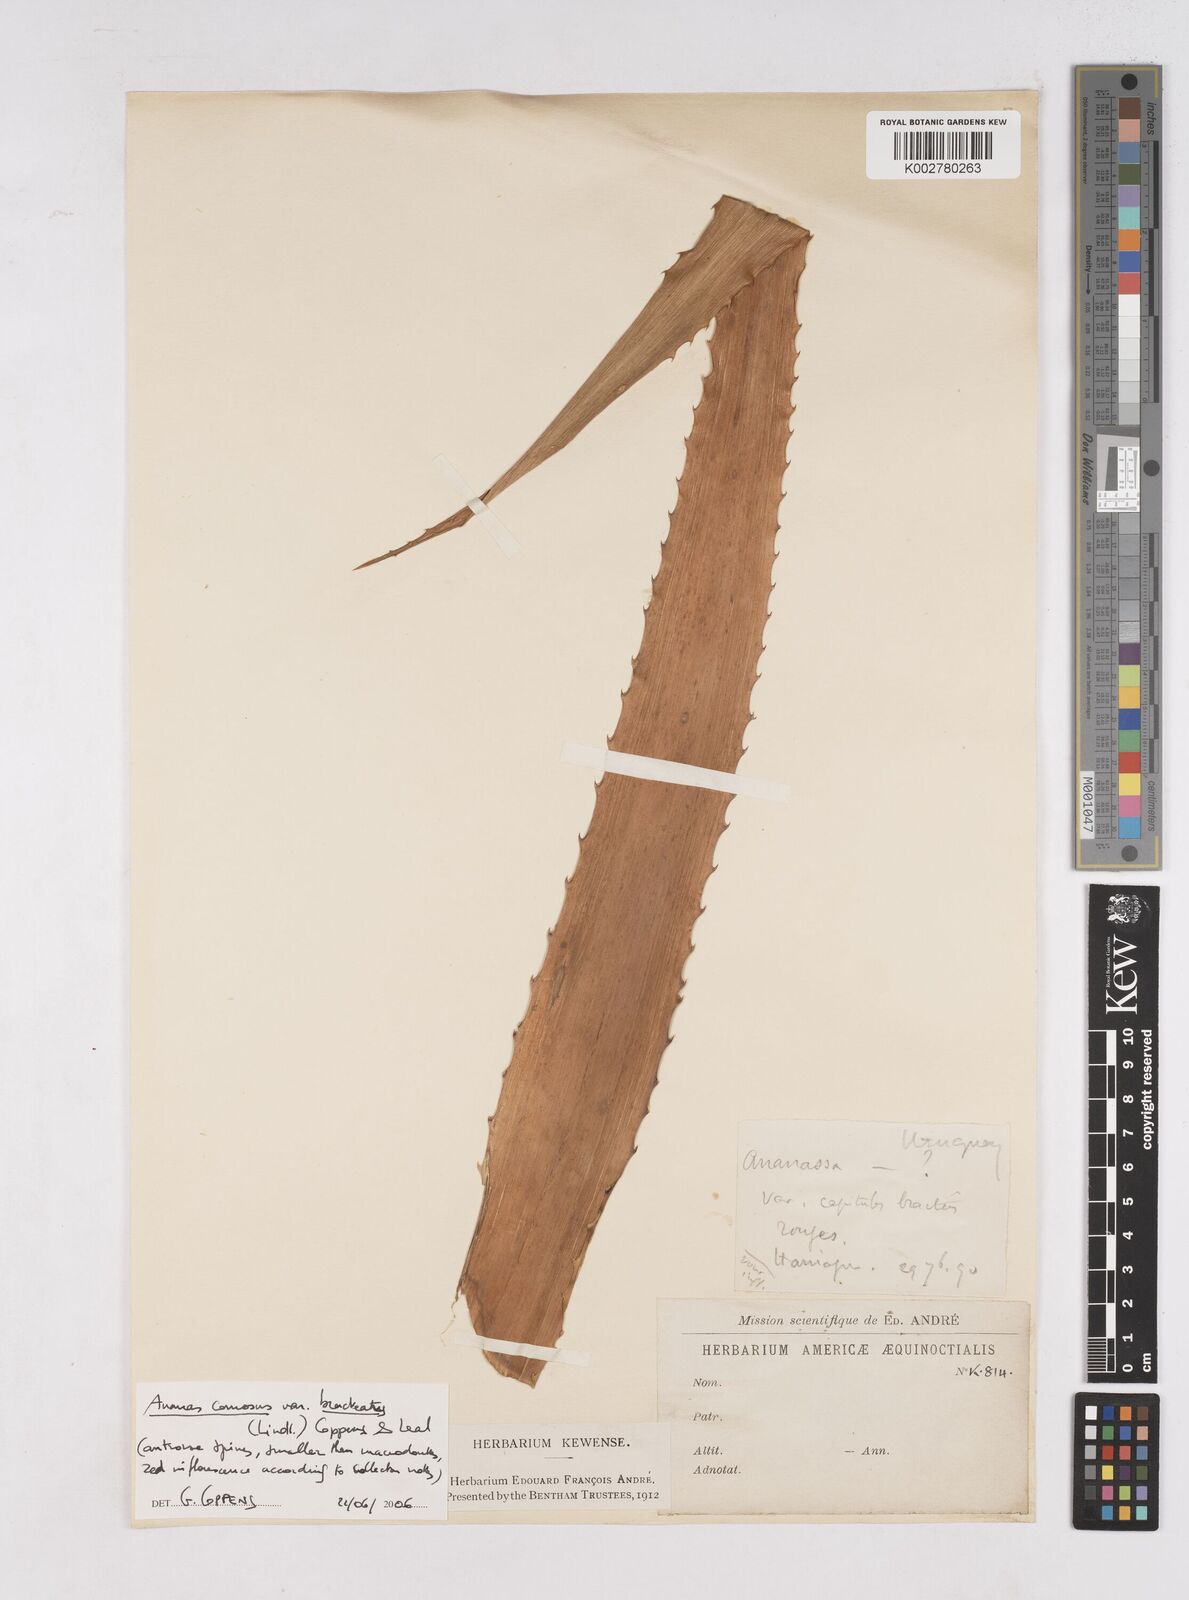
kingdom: Plantae
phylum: Tracheophyta
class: Liliopsida
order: Poales
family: Bromeliaceae
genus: Ananas
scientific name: Ananas comosus
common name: Pineapple
